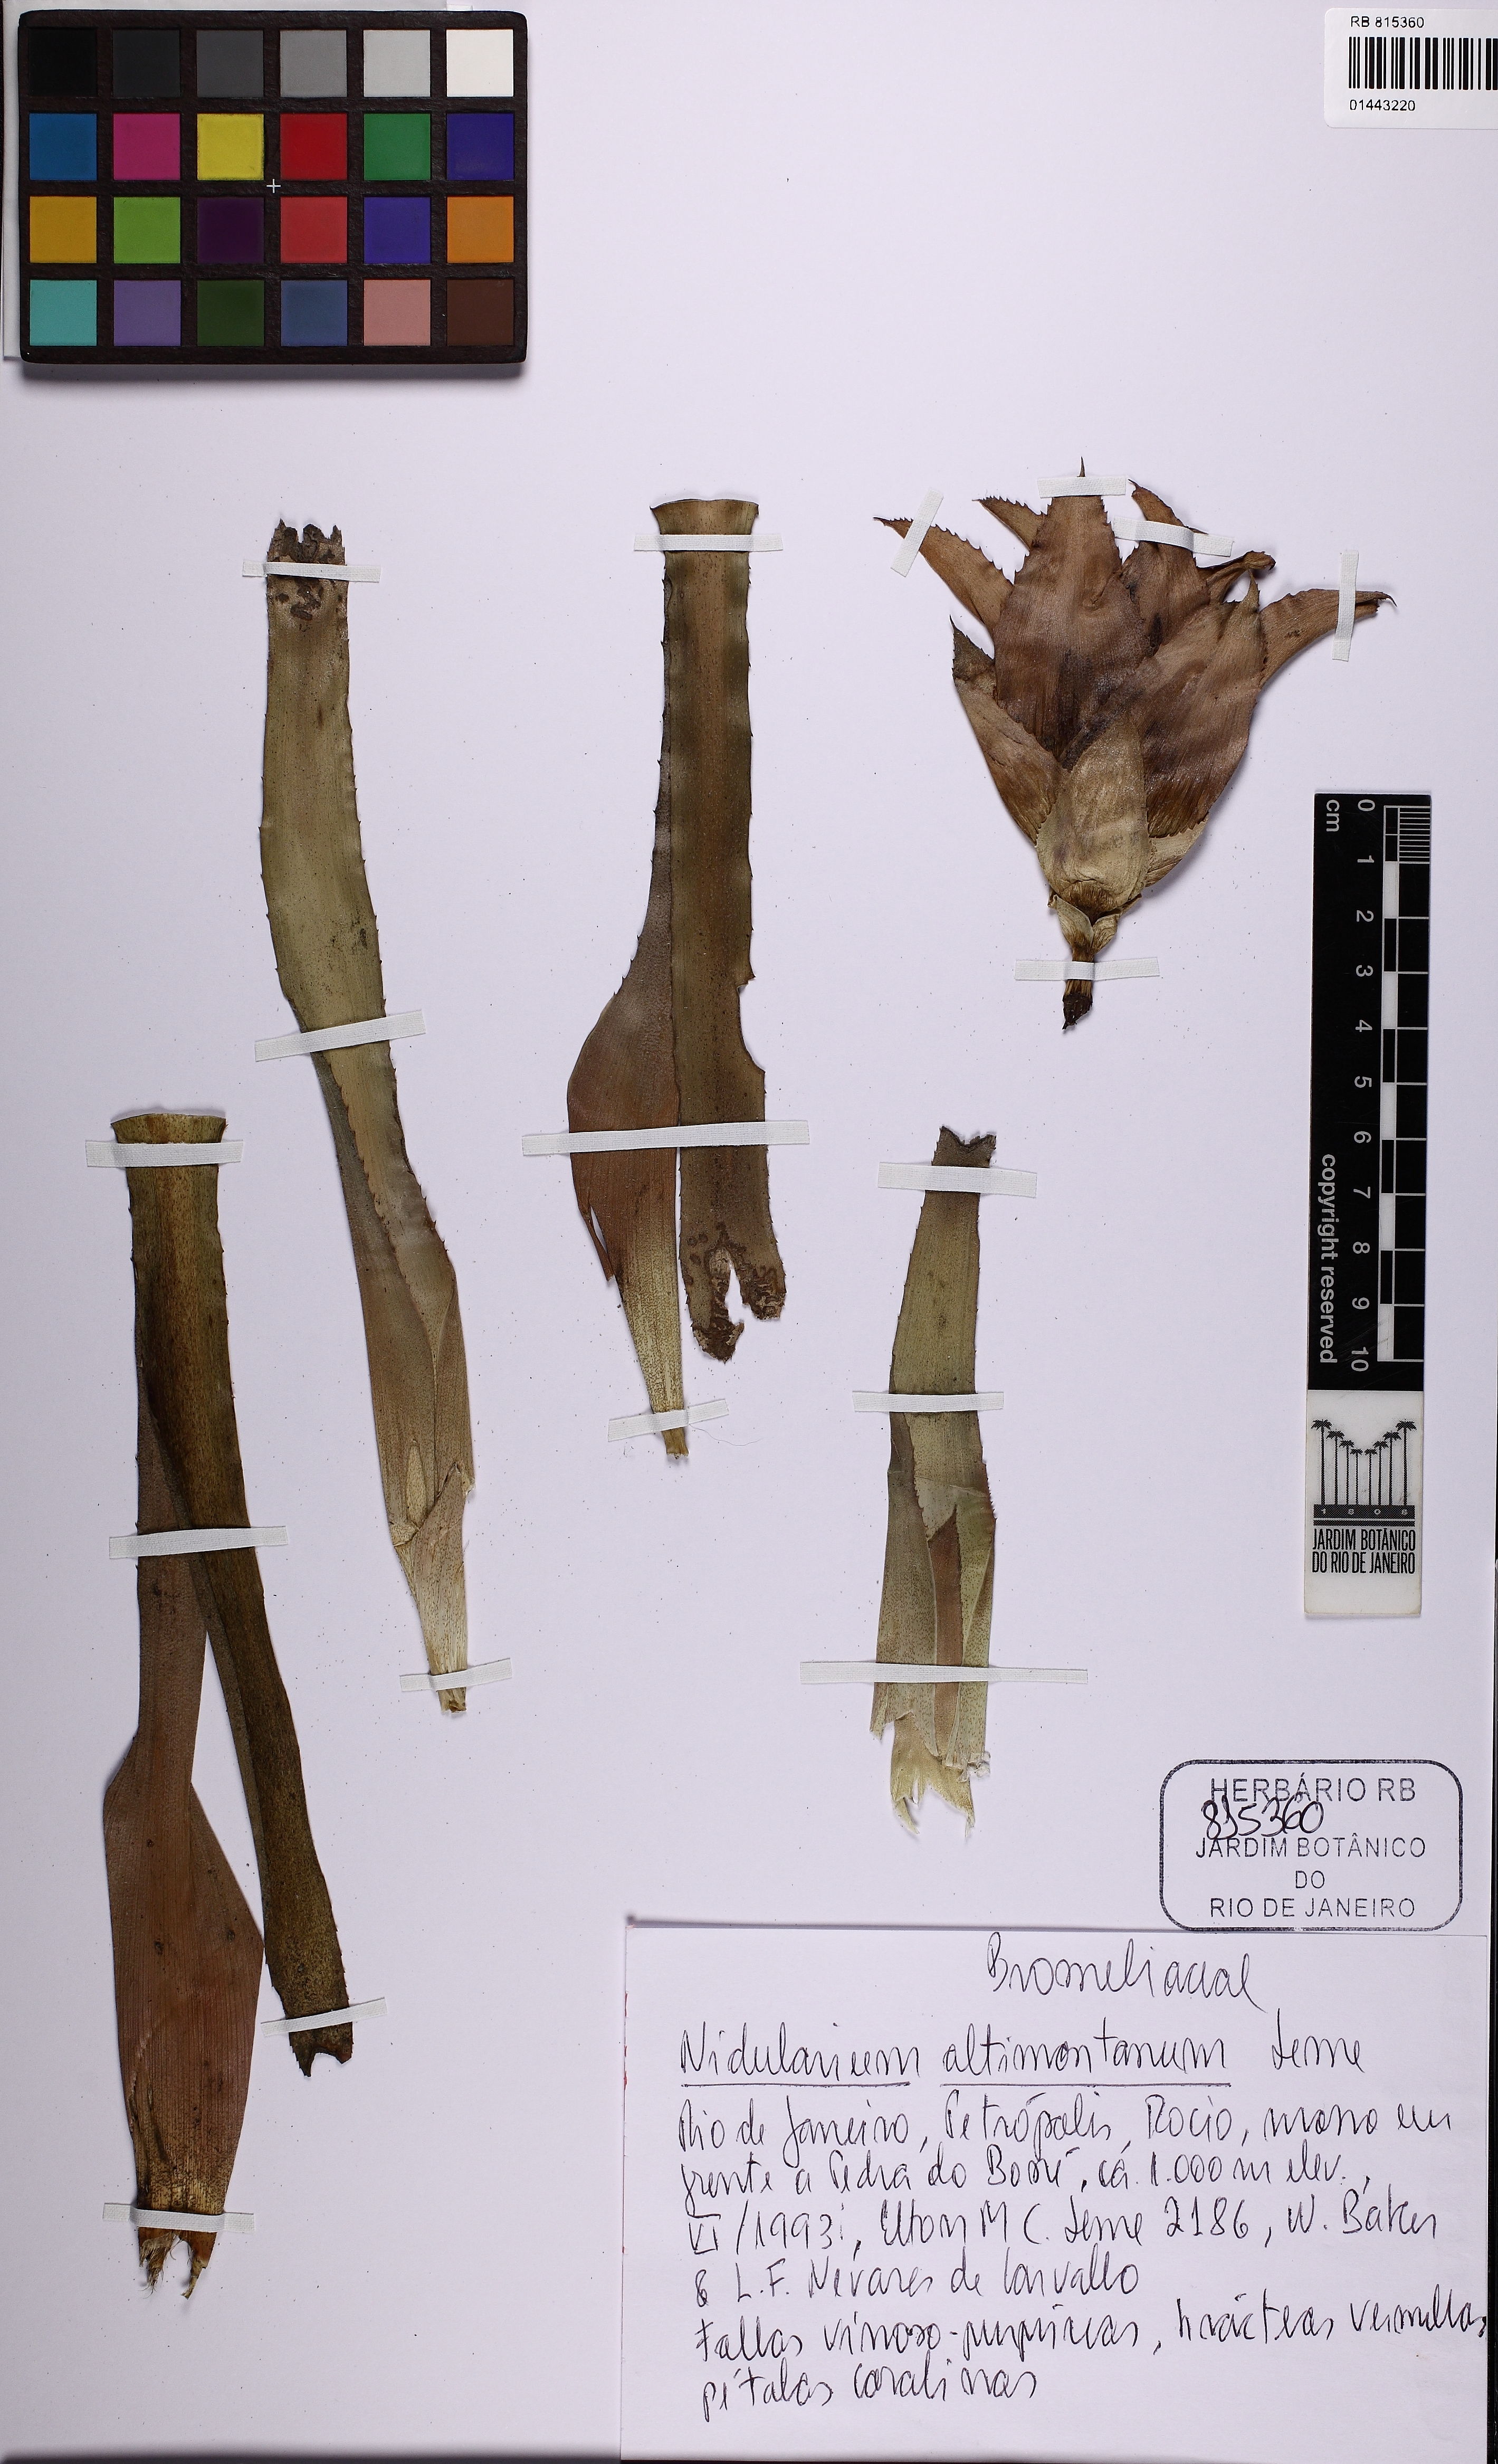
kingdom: Plantae
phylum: Tracheophyta
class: Liliopsida
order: Poales
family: Bromeliaceae
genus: Nidularium
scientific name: Nidularium altimontanum
